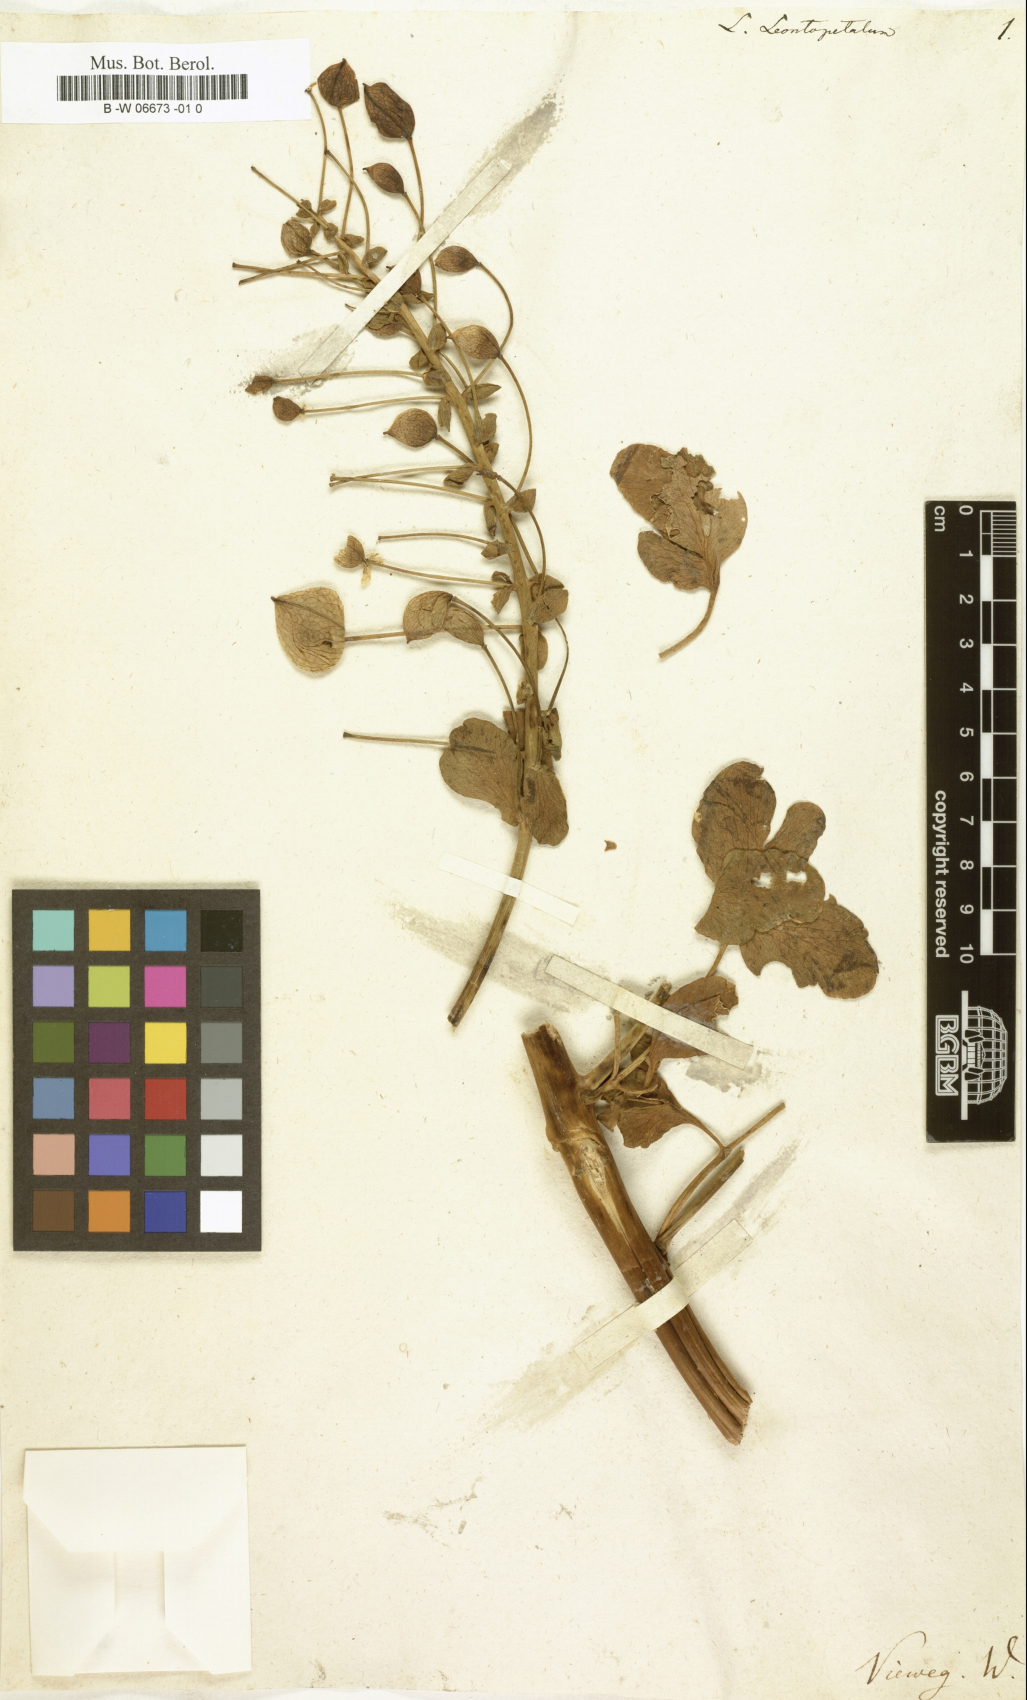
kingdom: Plantae
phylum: Tracheophyta
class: Magnoliopsida
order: Ranunculales
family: Berberidaceae
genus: Leontice
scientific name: Leontice leontopetalum
